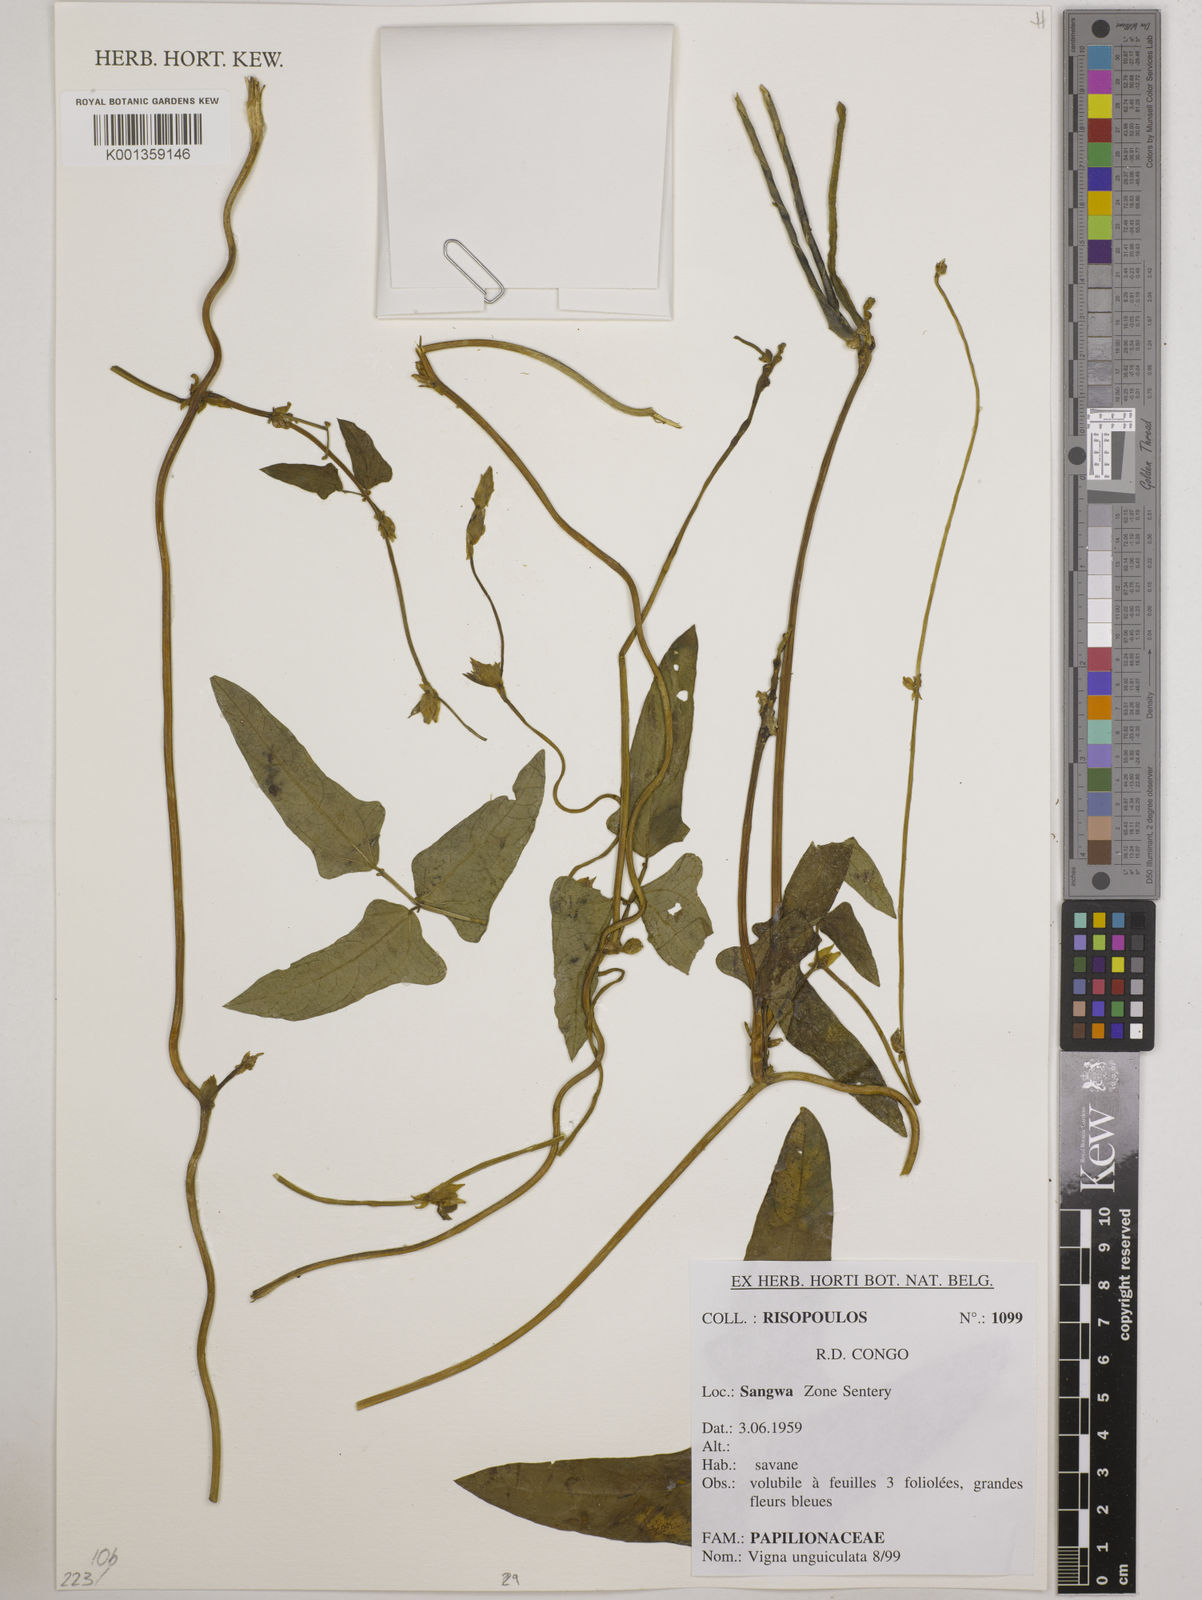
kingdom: Plantae
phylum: Tracheophyta
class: Magnoliopsida
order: Fabales
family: Fabaceae
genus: Vigna
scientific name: Vigna unguiculata
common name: Cowpea
